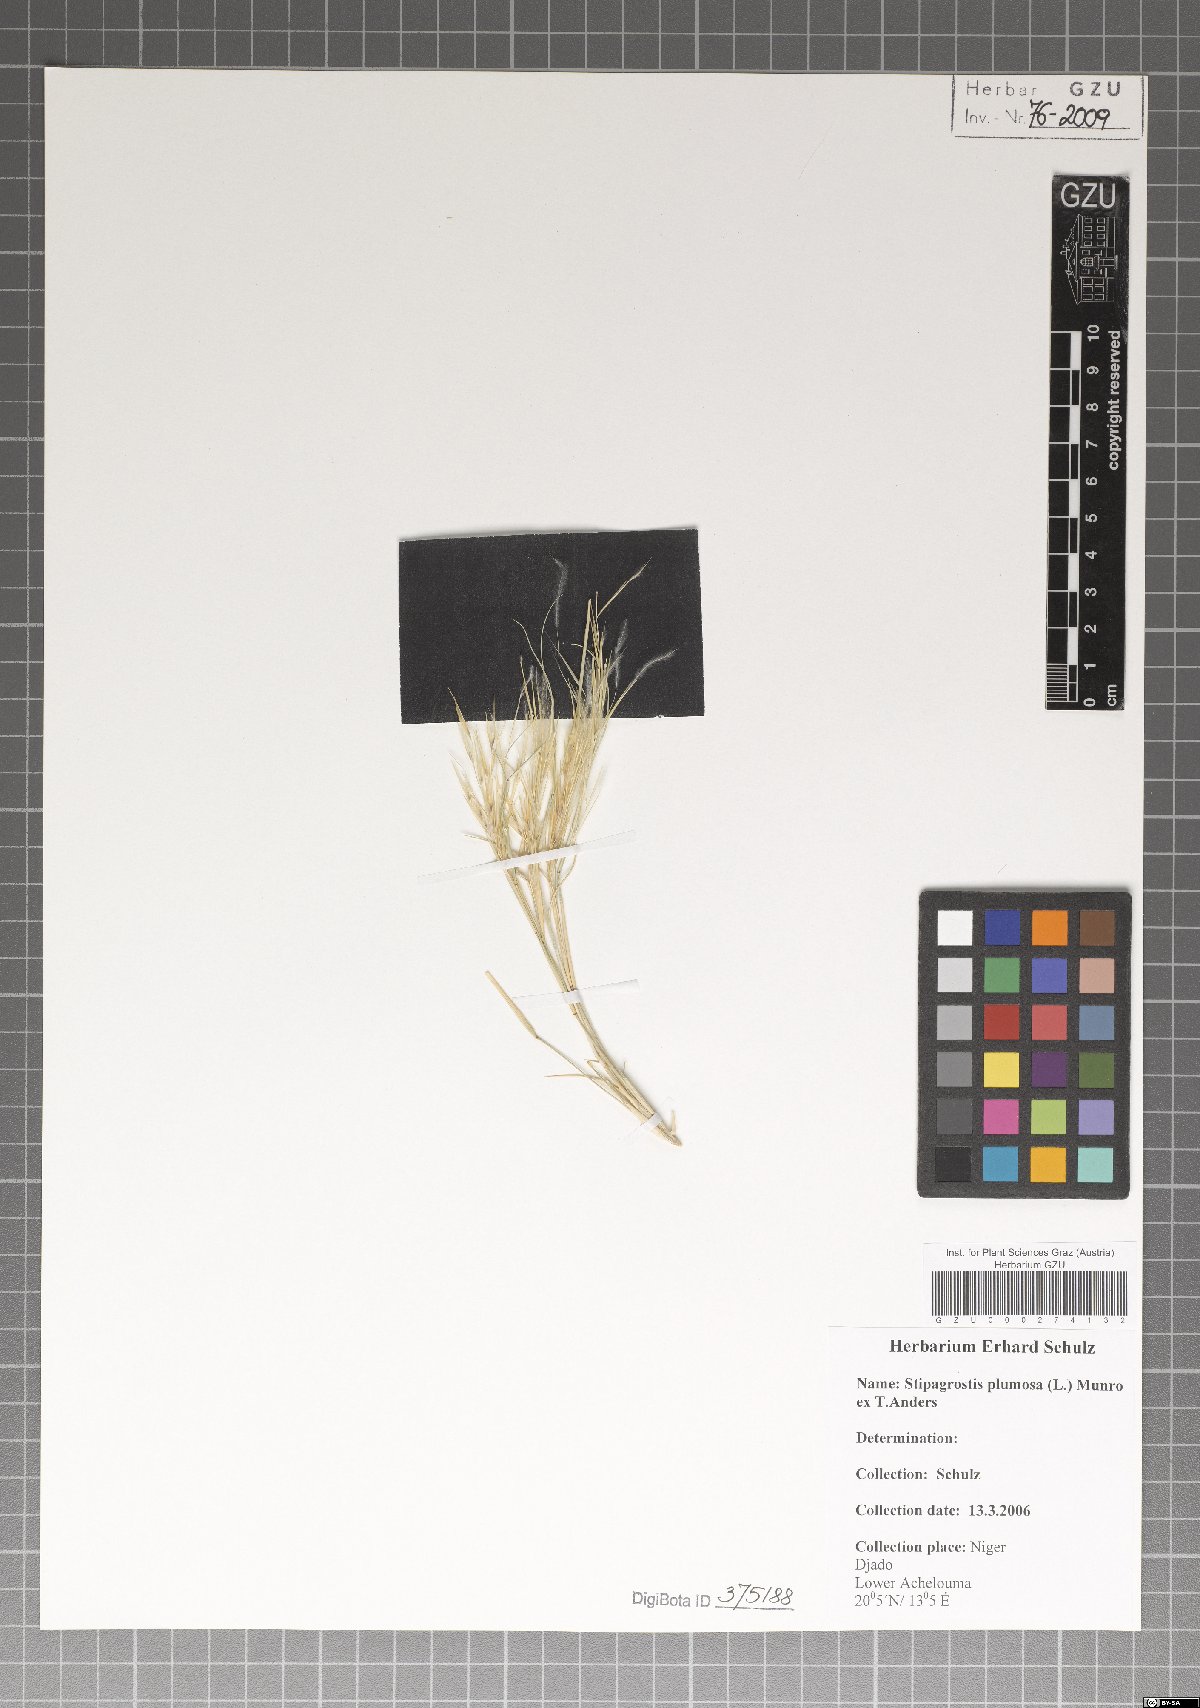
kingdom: Plantae
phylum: Tracheophyta
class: Liliopsida
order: Poales
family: Poaceae
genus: Stipagrostis
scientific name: Stipagrostis plumosa
